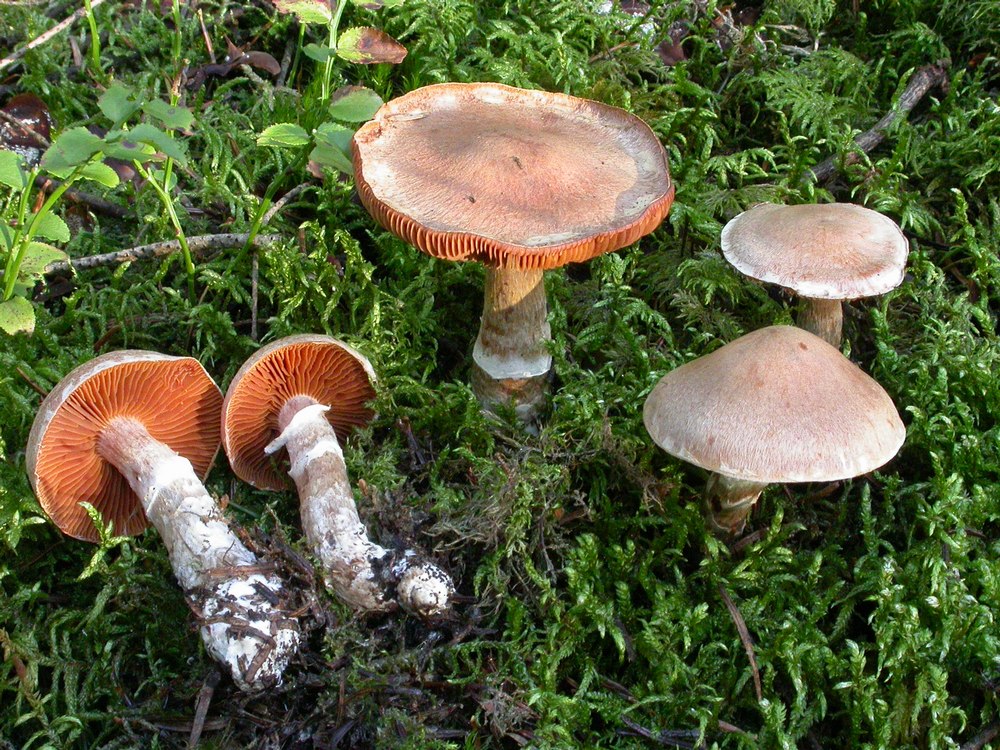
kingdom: Fungi
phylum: Basidiomycota
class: Agaricomycetes
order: Agaricales
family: Cortinariaceae
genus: Cortinarius
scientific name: Cortinarius laniger
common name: teglbladet slørhat
